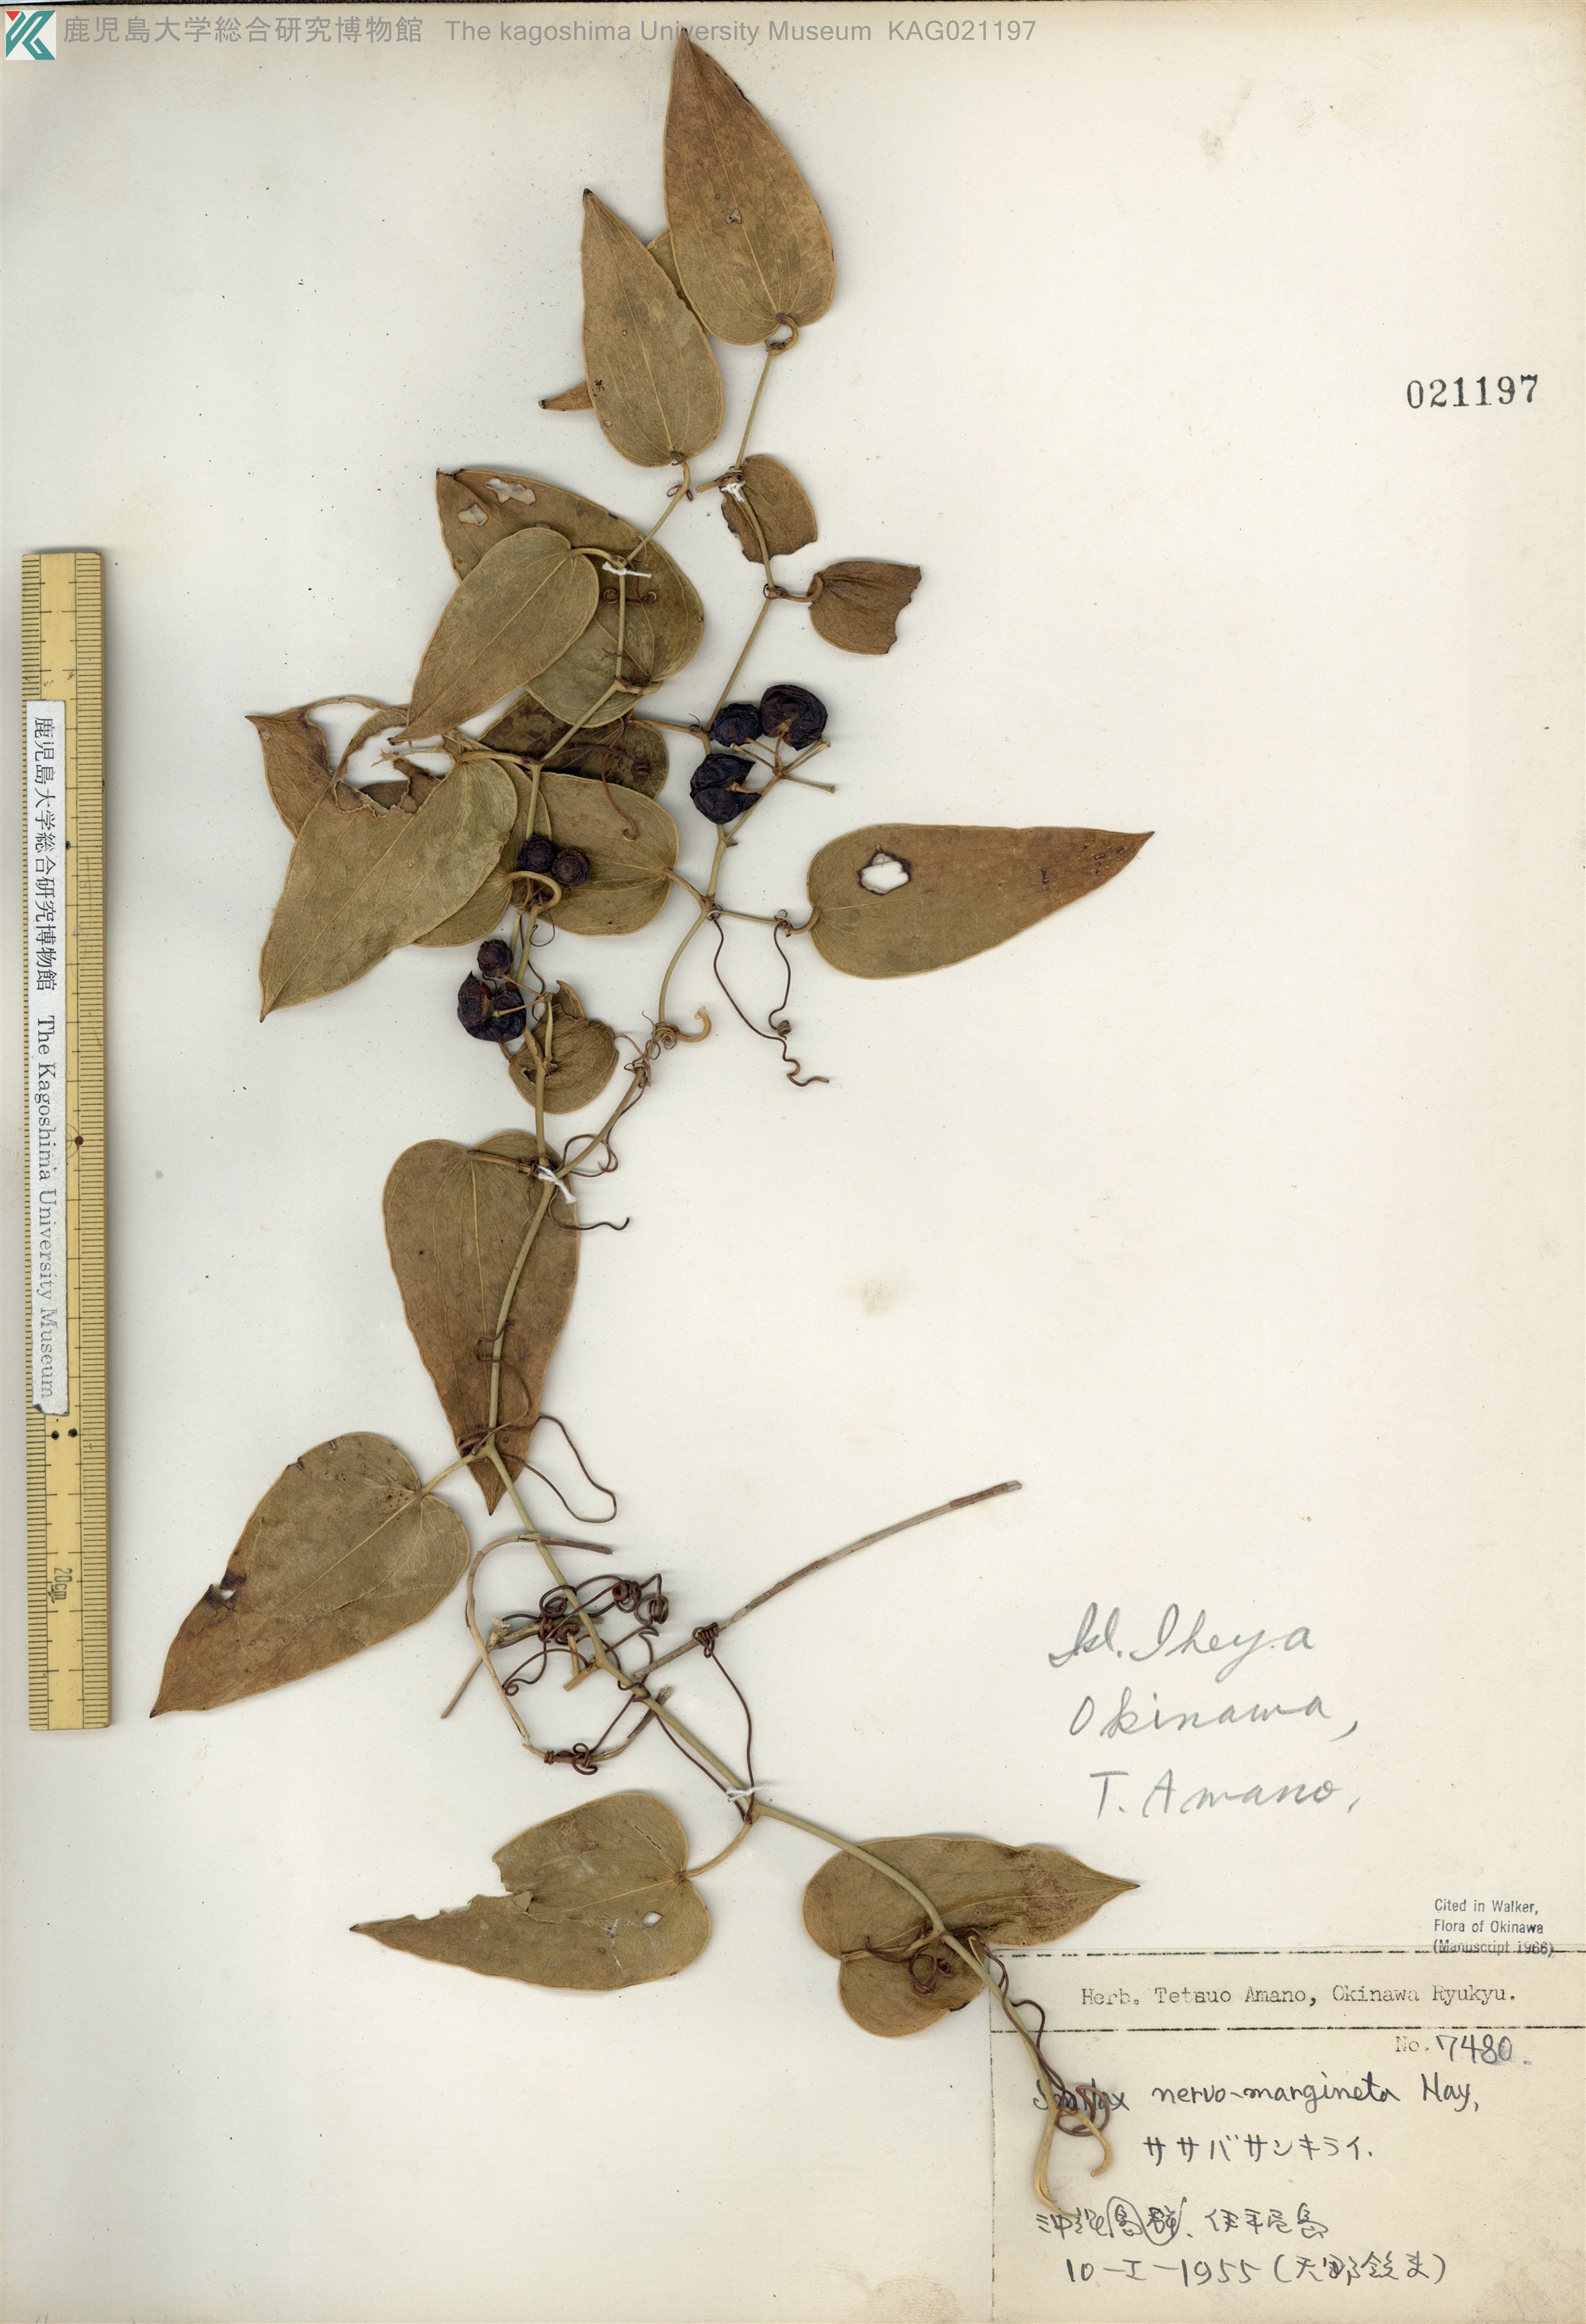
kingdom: Plantae
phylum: Tracheophyta
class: Liliopsida
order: Liliales
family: Smilacaceae
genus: Smilax
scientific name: Smilax nervomarginata
